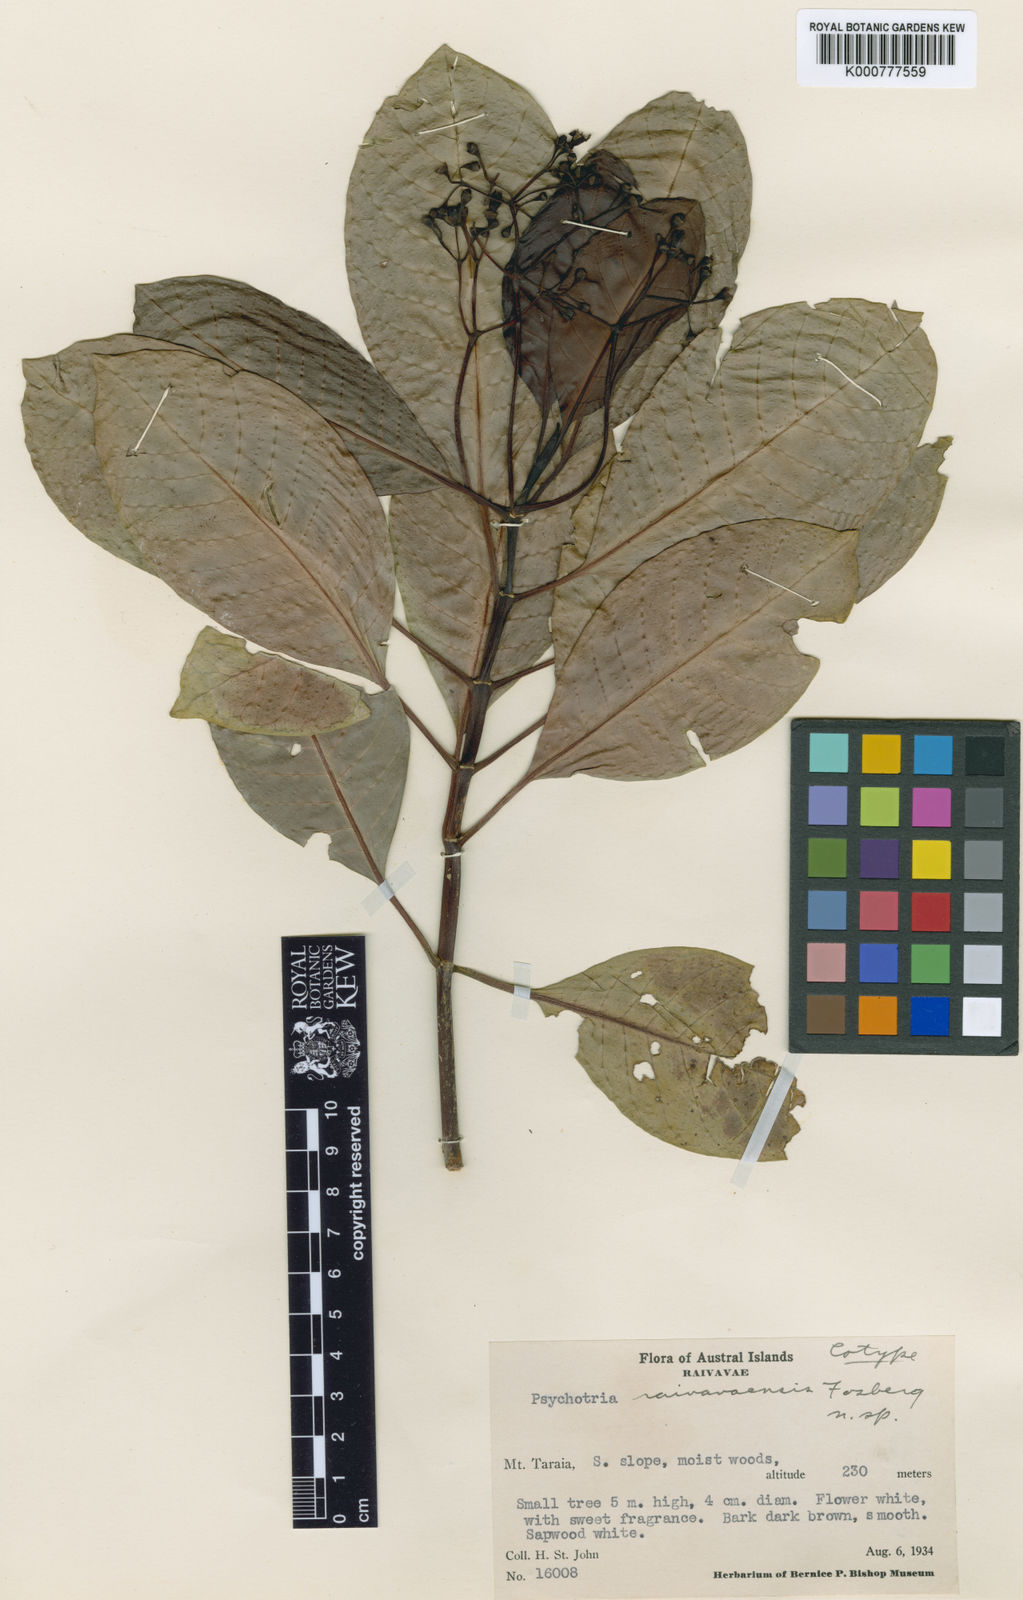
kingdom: Plantae
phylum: Tracheophyta
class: Magnoliopsida
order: Gentianales
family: Rubiaceae
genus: Psychotria
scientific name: Psychotria raivavaensis
